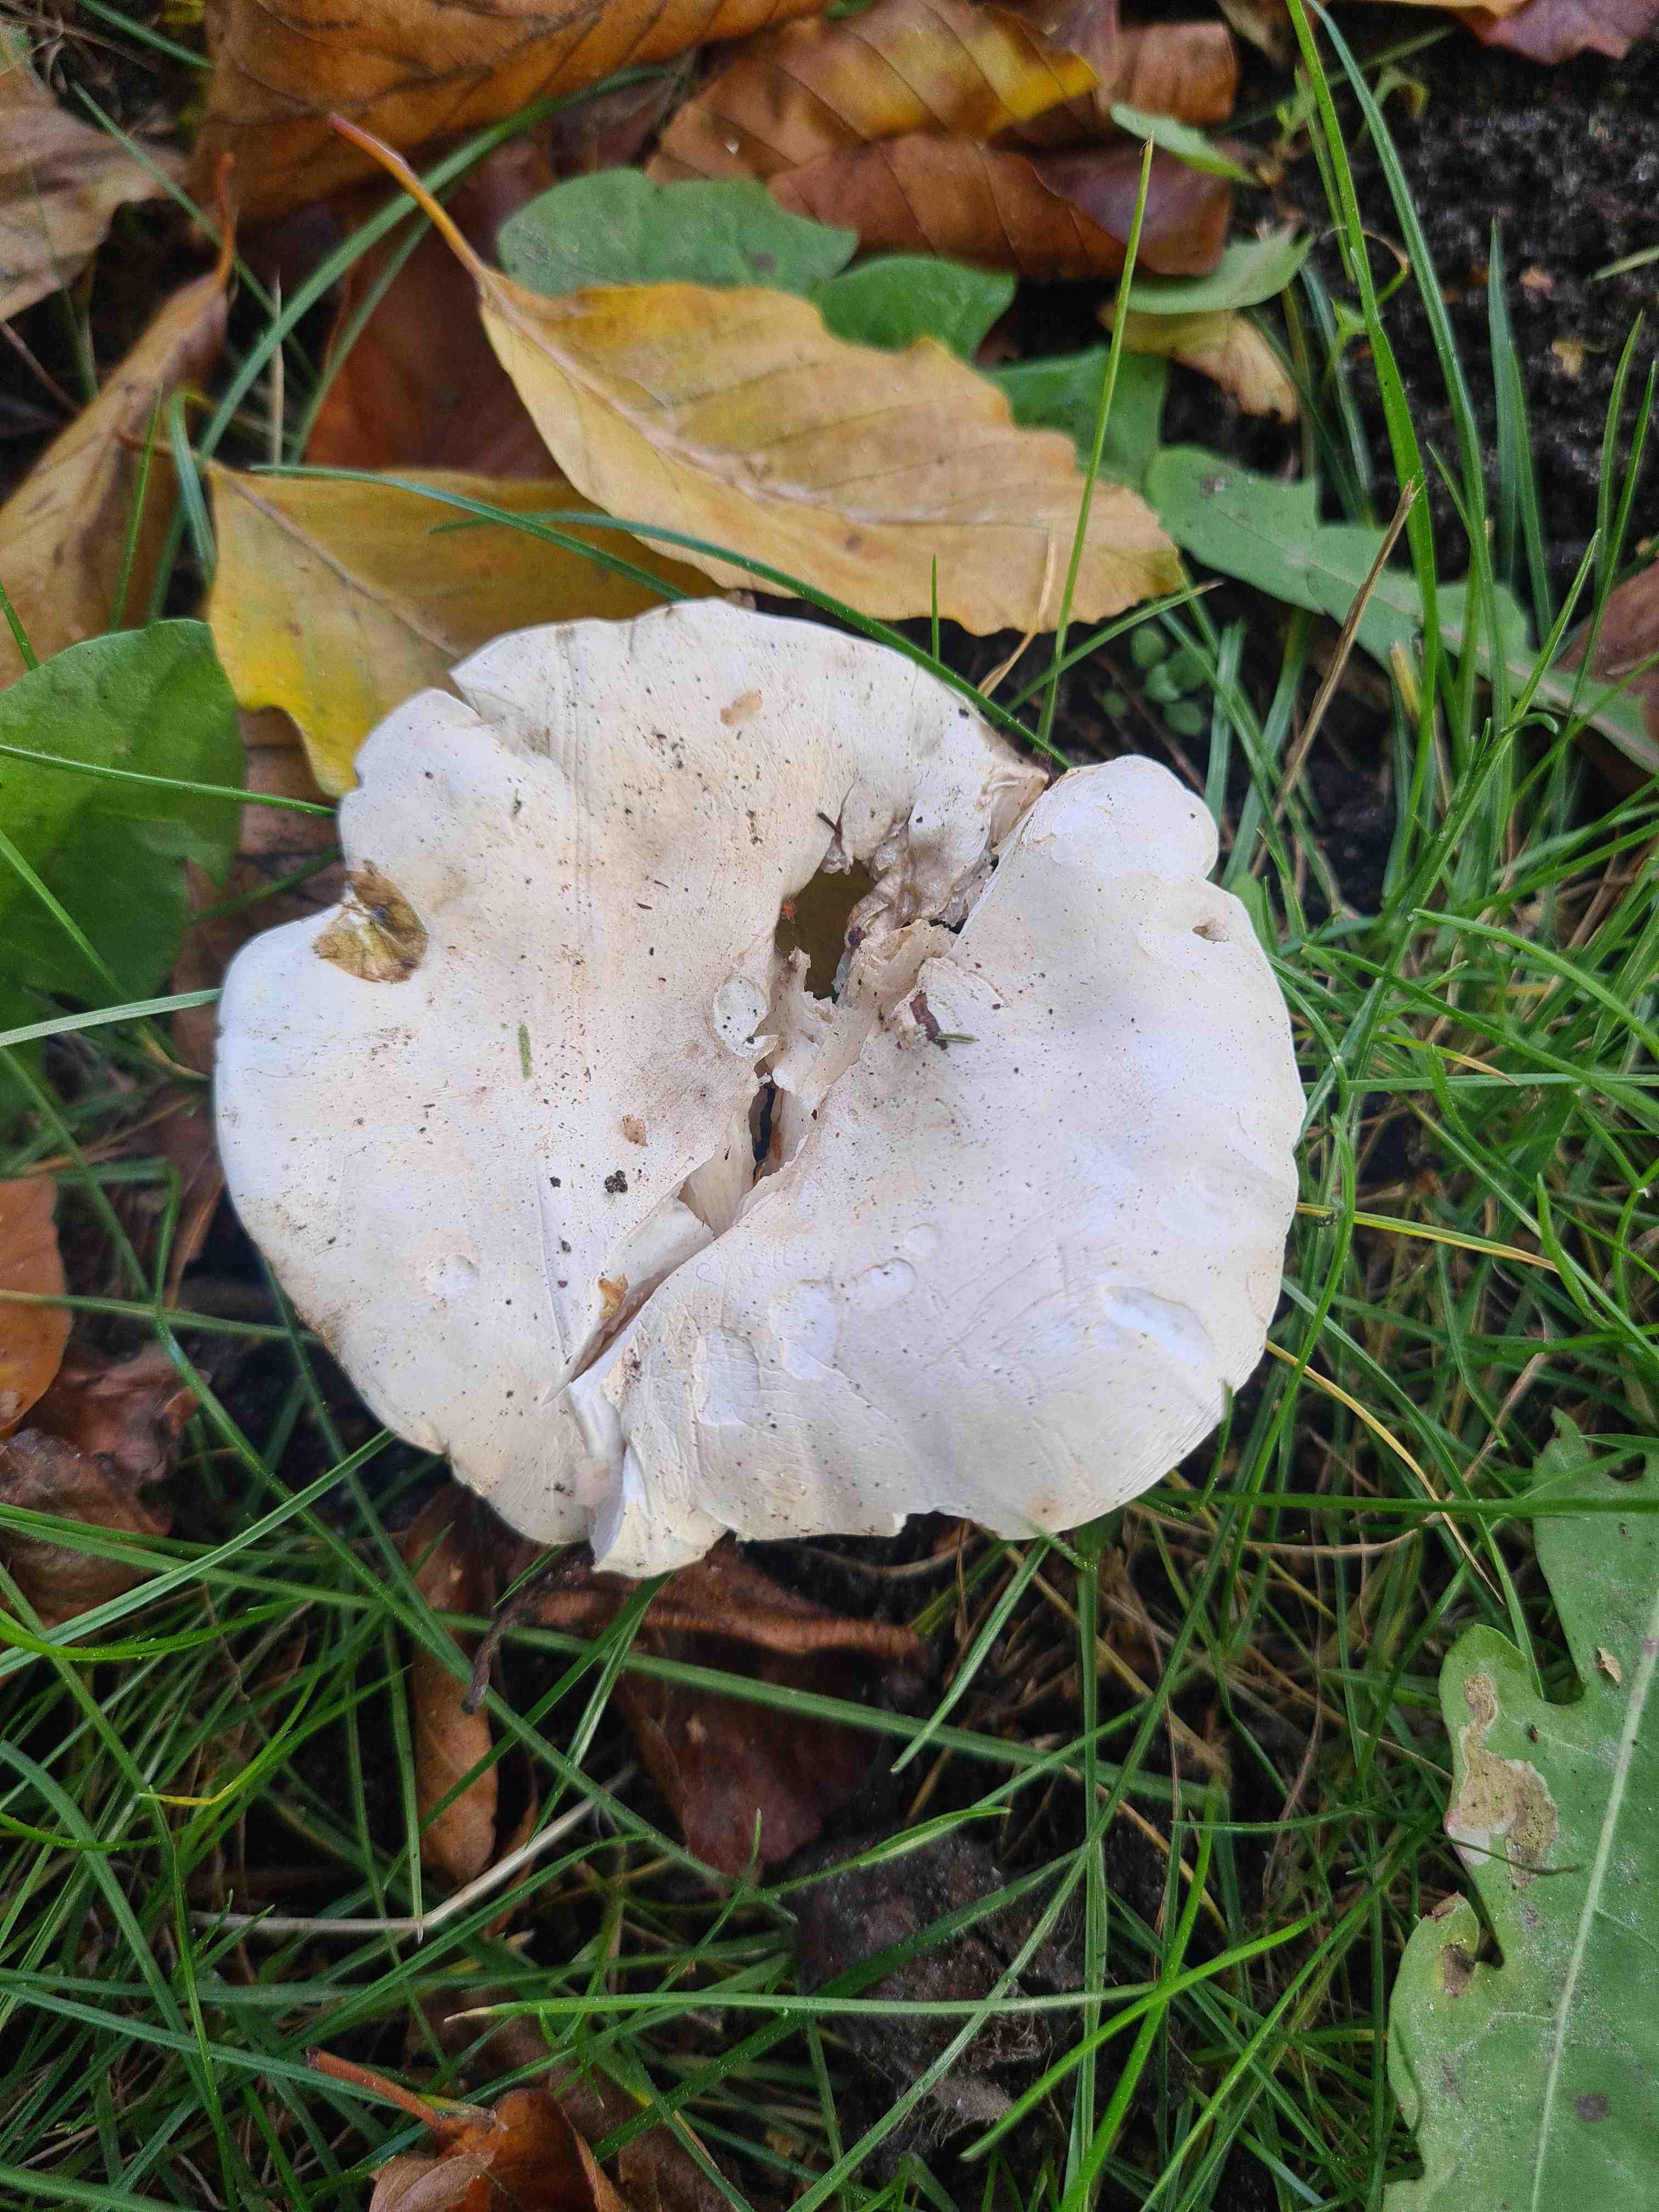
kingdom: Fungi
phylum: Basidiomycota
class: Agaricomycetes
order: Agaricales
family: Entolomataceae
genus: Clitopilus
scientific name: Clitopilus prunulus
